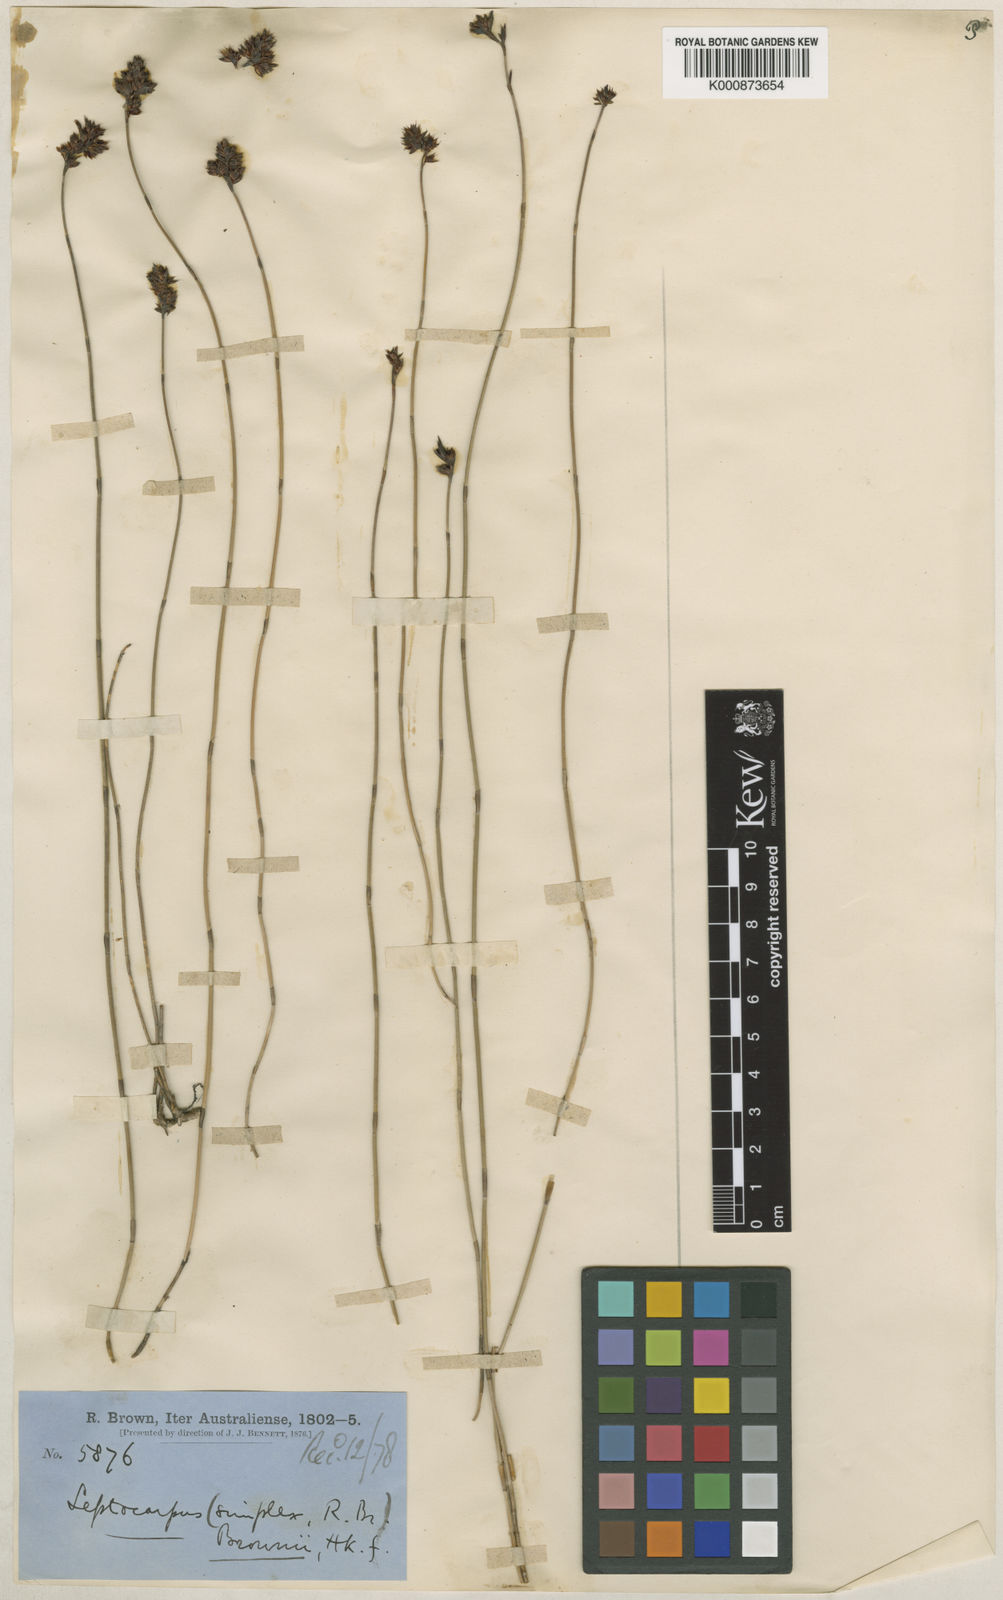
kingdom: Plantae
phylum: Tracheophyta
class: Liliopsida
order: Poales
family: Restionaceae
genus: Apodasmia
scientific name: Apodasmia brownii
